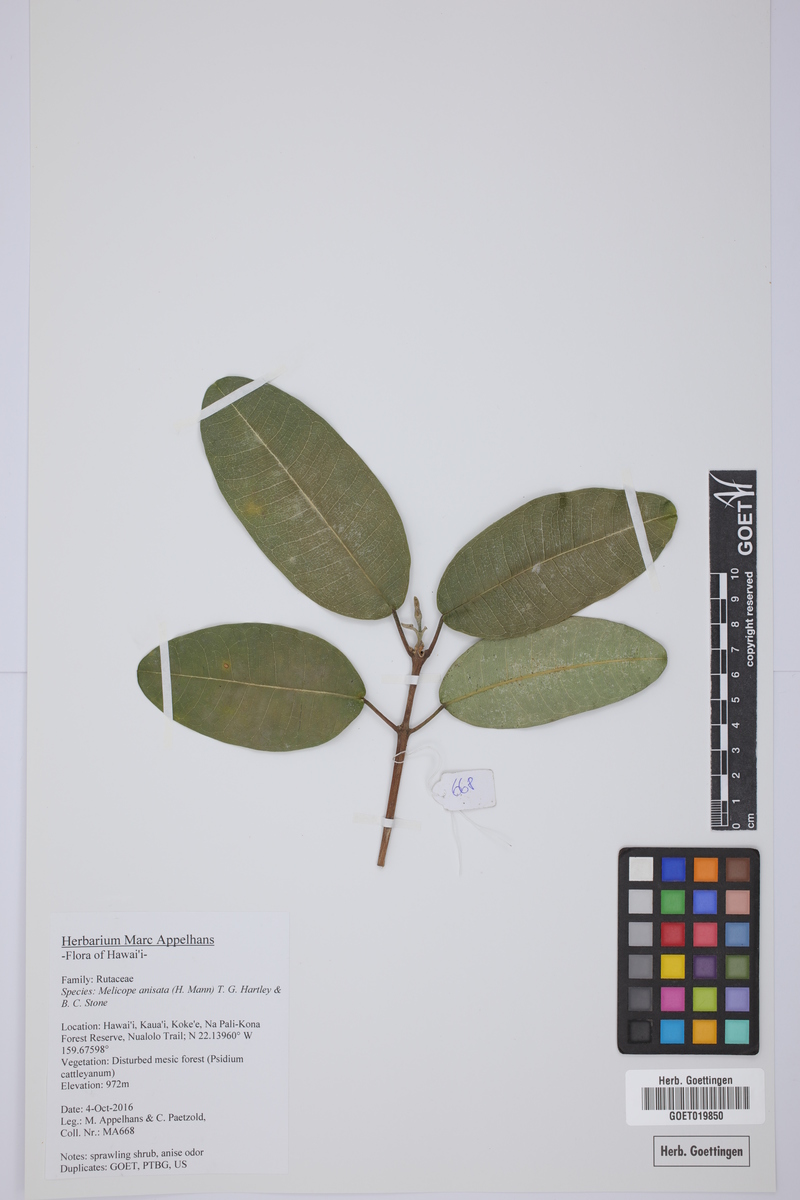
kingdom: Plantae
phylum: Tracheophyta
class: Magnoliopsida
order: Sapindales
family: Rutaceae
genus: Melicope
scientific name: Melicope anisata
